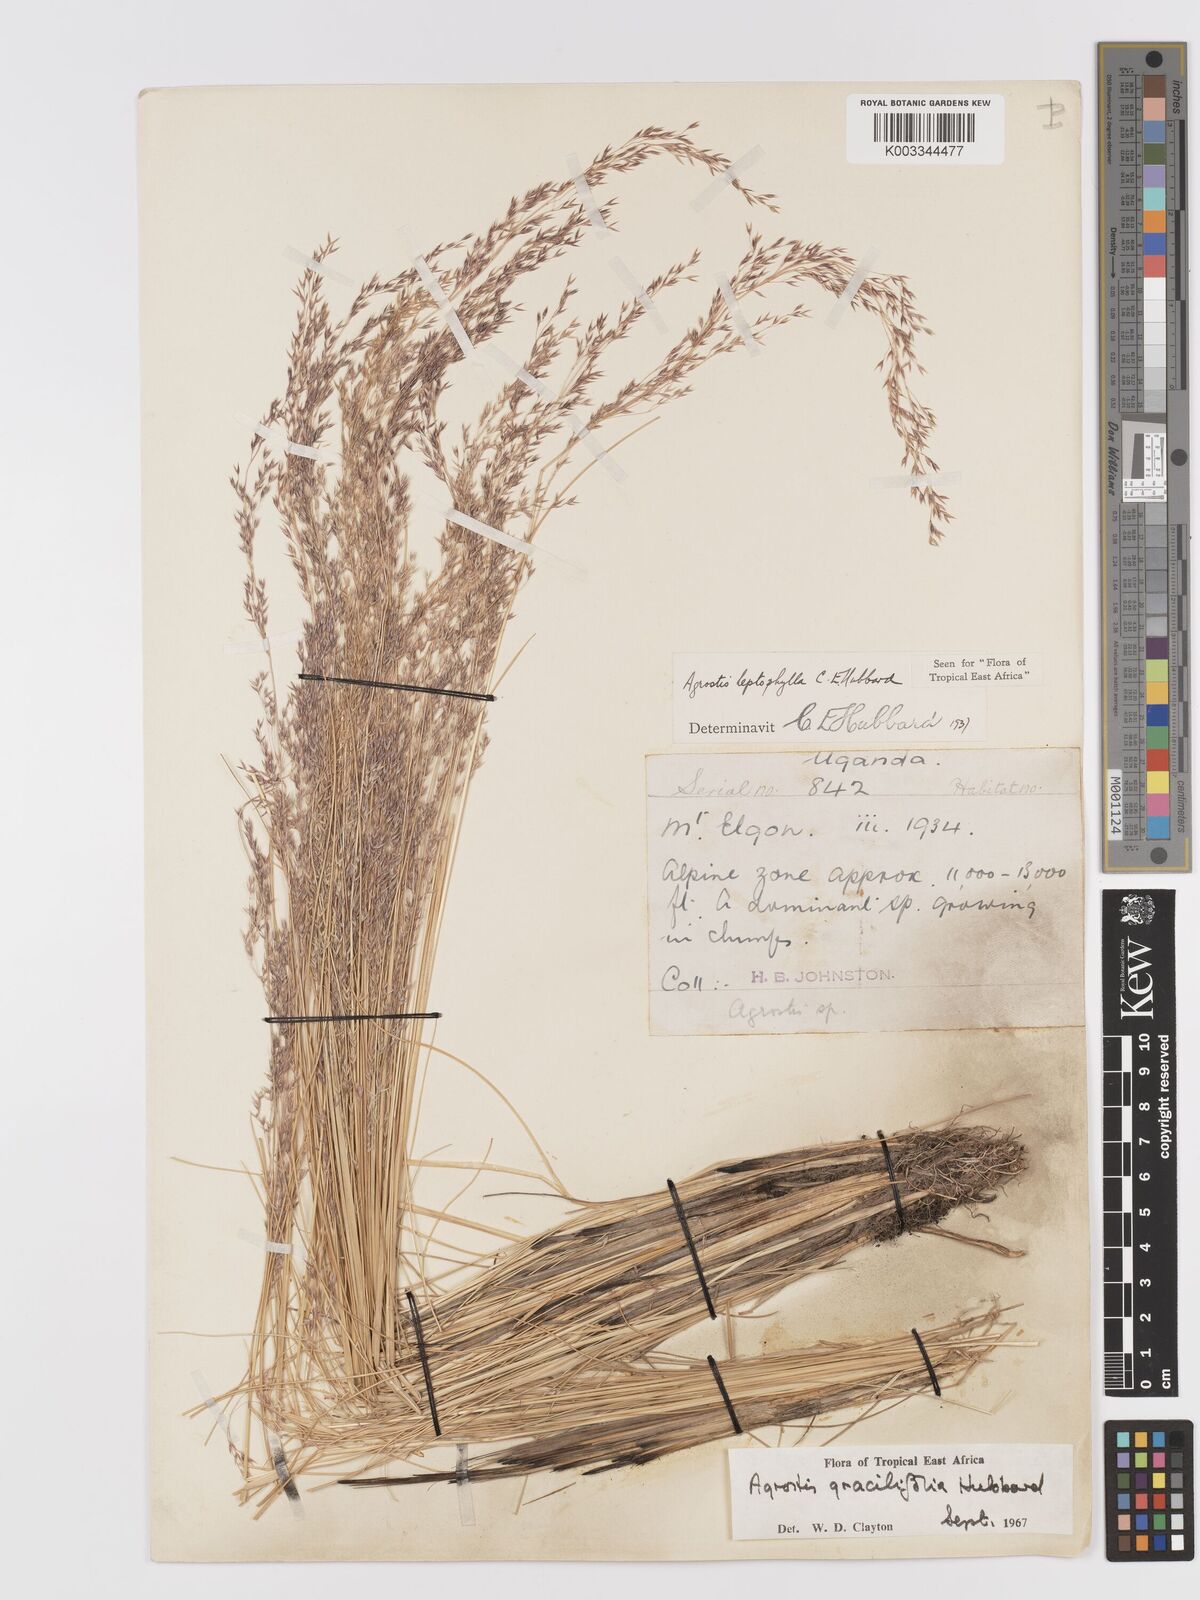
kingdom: Plantae
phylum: Tracheophyta
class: Liliopsida
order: Poales
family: Poaceae
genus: Agrostis
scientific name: Agrostis gracilifolia
